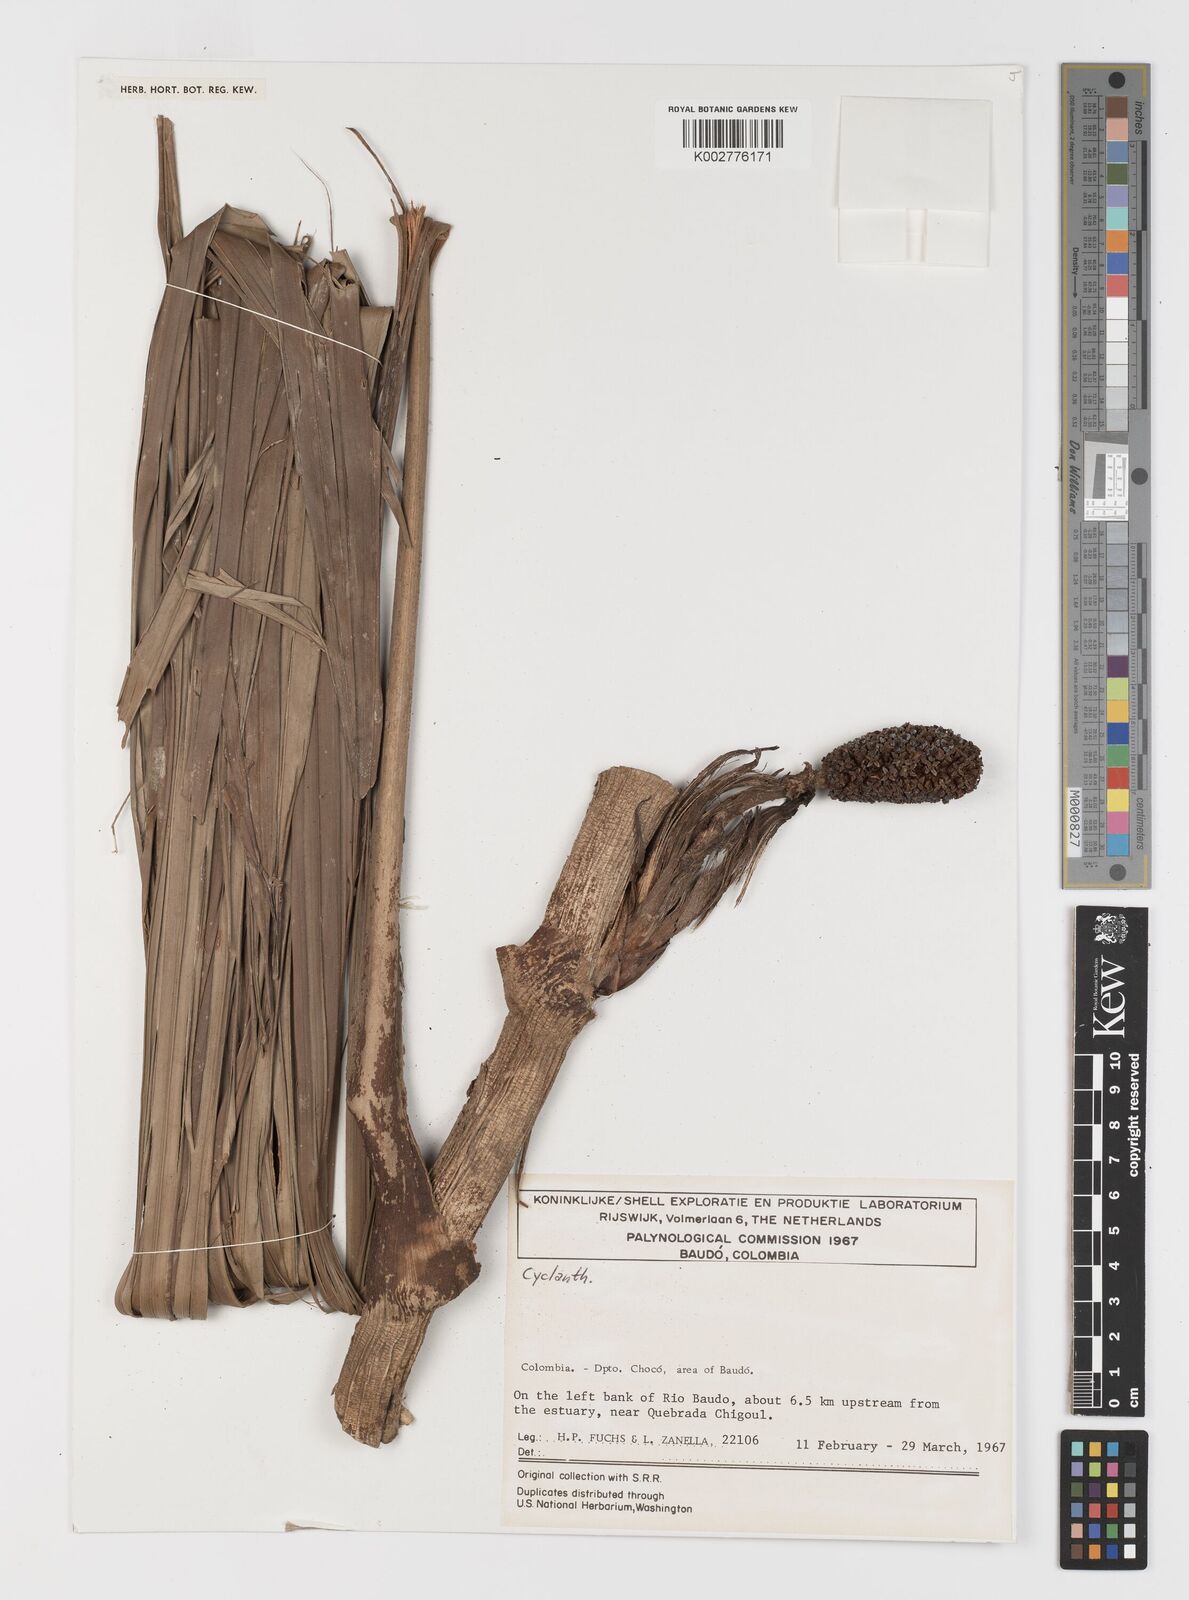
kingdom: Plantae
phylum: Tracheophyta
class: Liliopsida
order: Pandanales
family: Cyclanthaceae
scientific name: Cyclanthaceae
